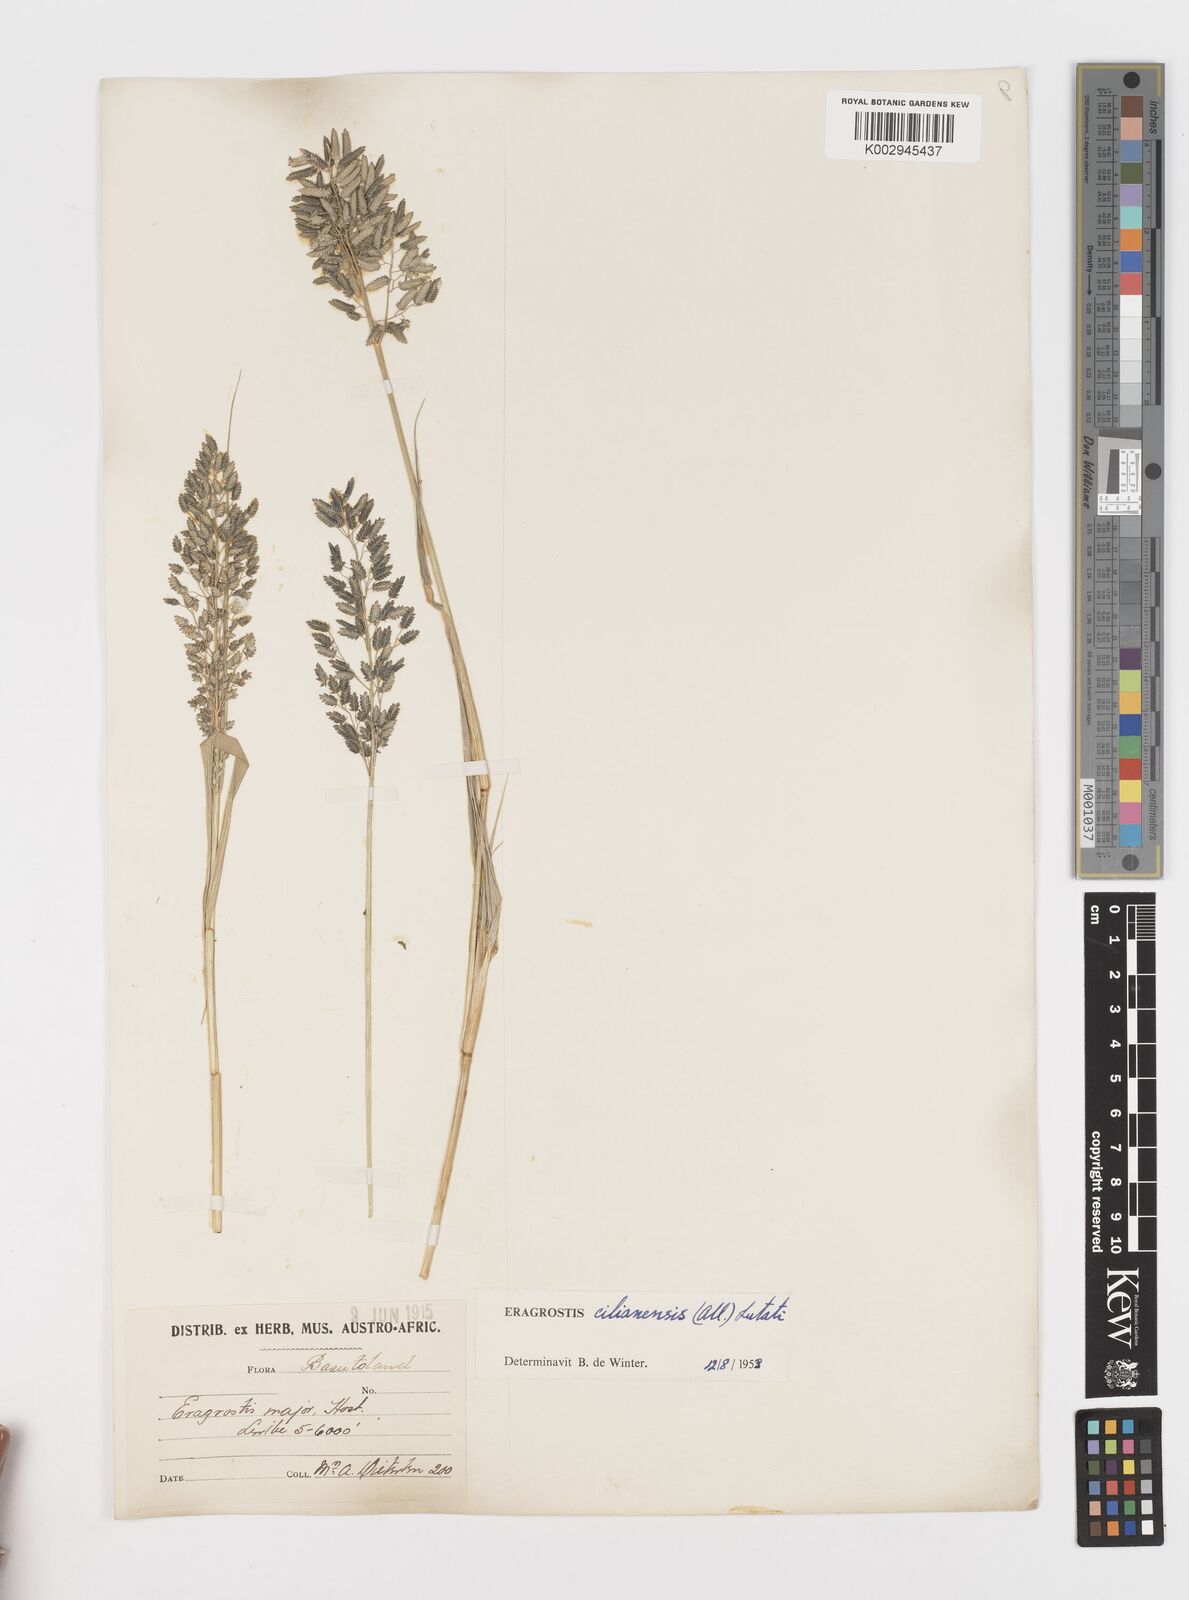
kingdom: Plantae
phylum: Tracheophyta
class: Liliopsida
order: Poales
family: Poaceae
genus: Eragrostis
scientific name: Eragrostis cilianensis
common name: Stinkgrass
